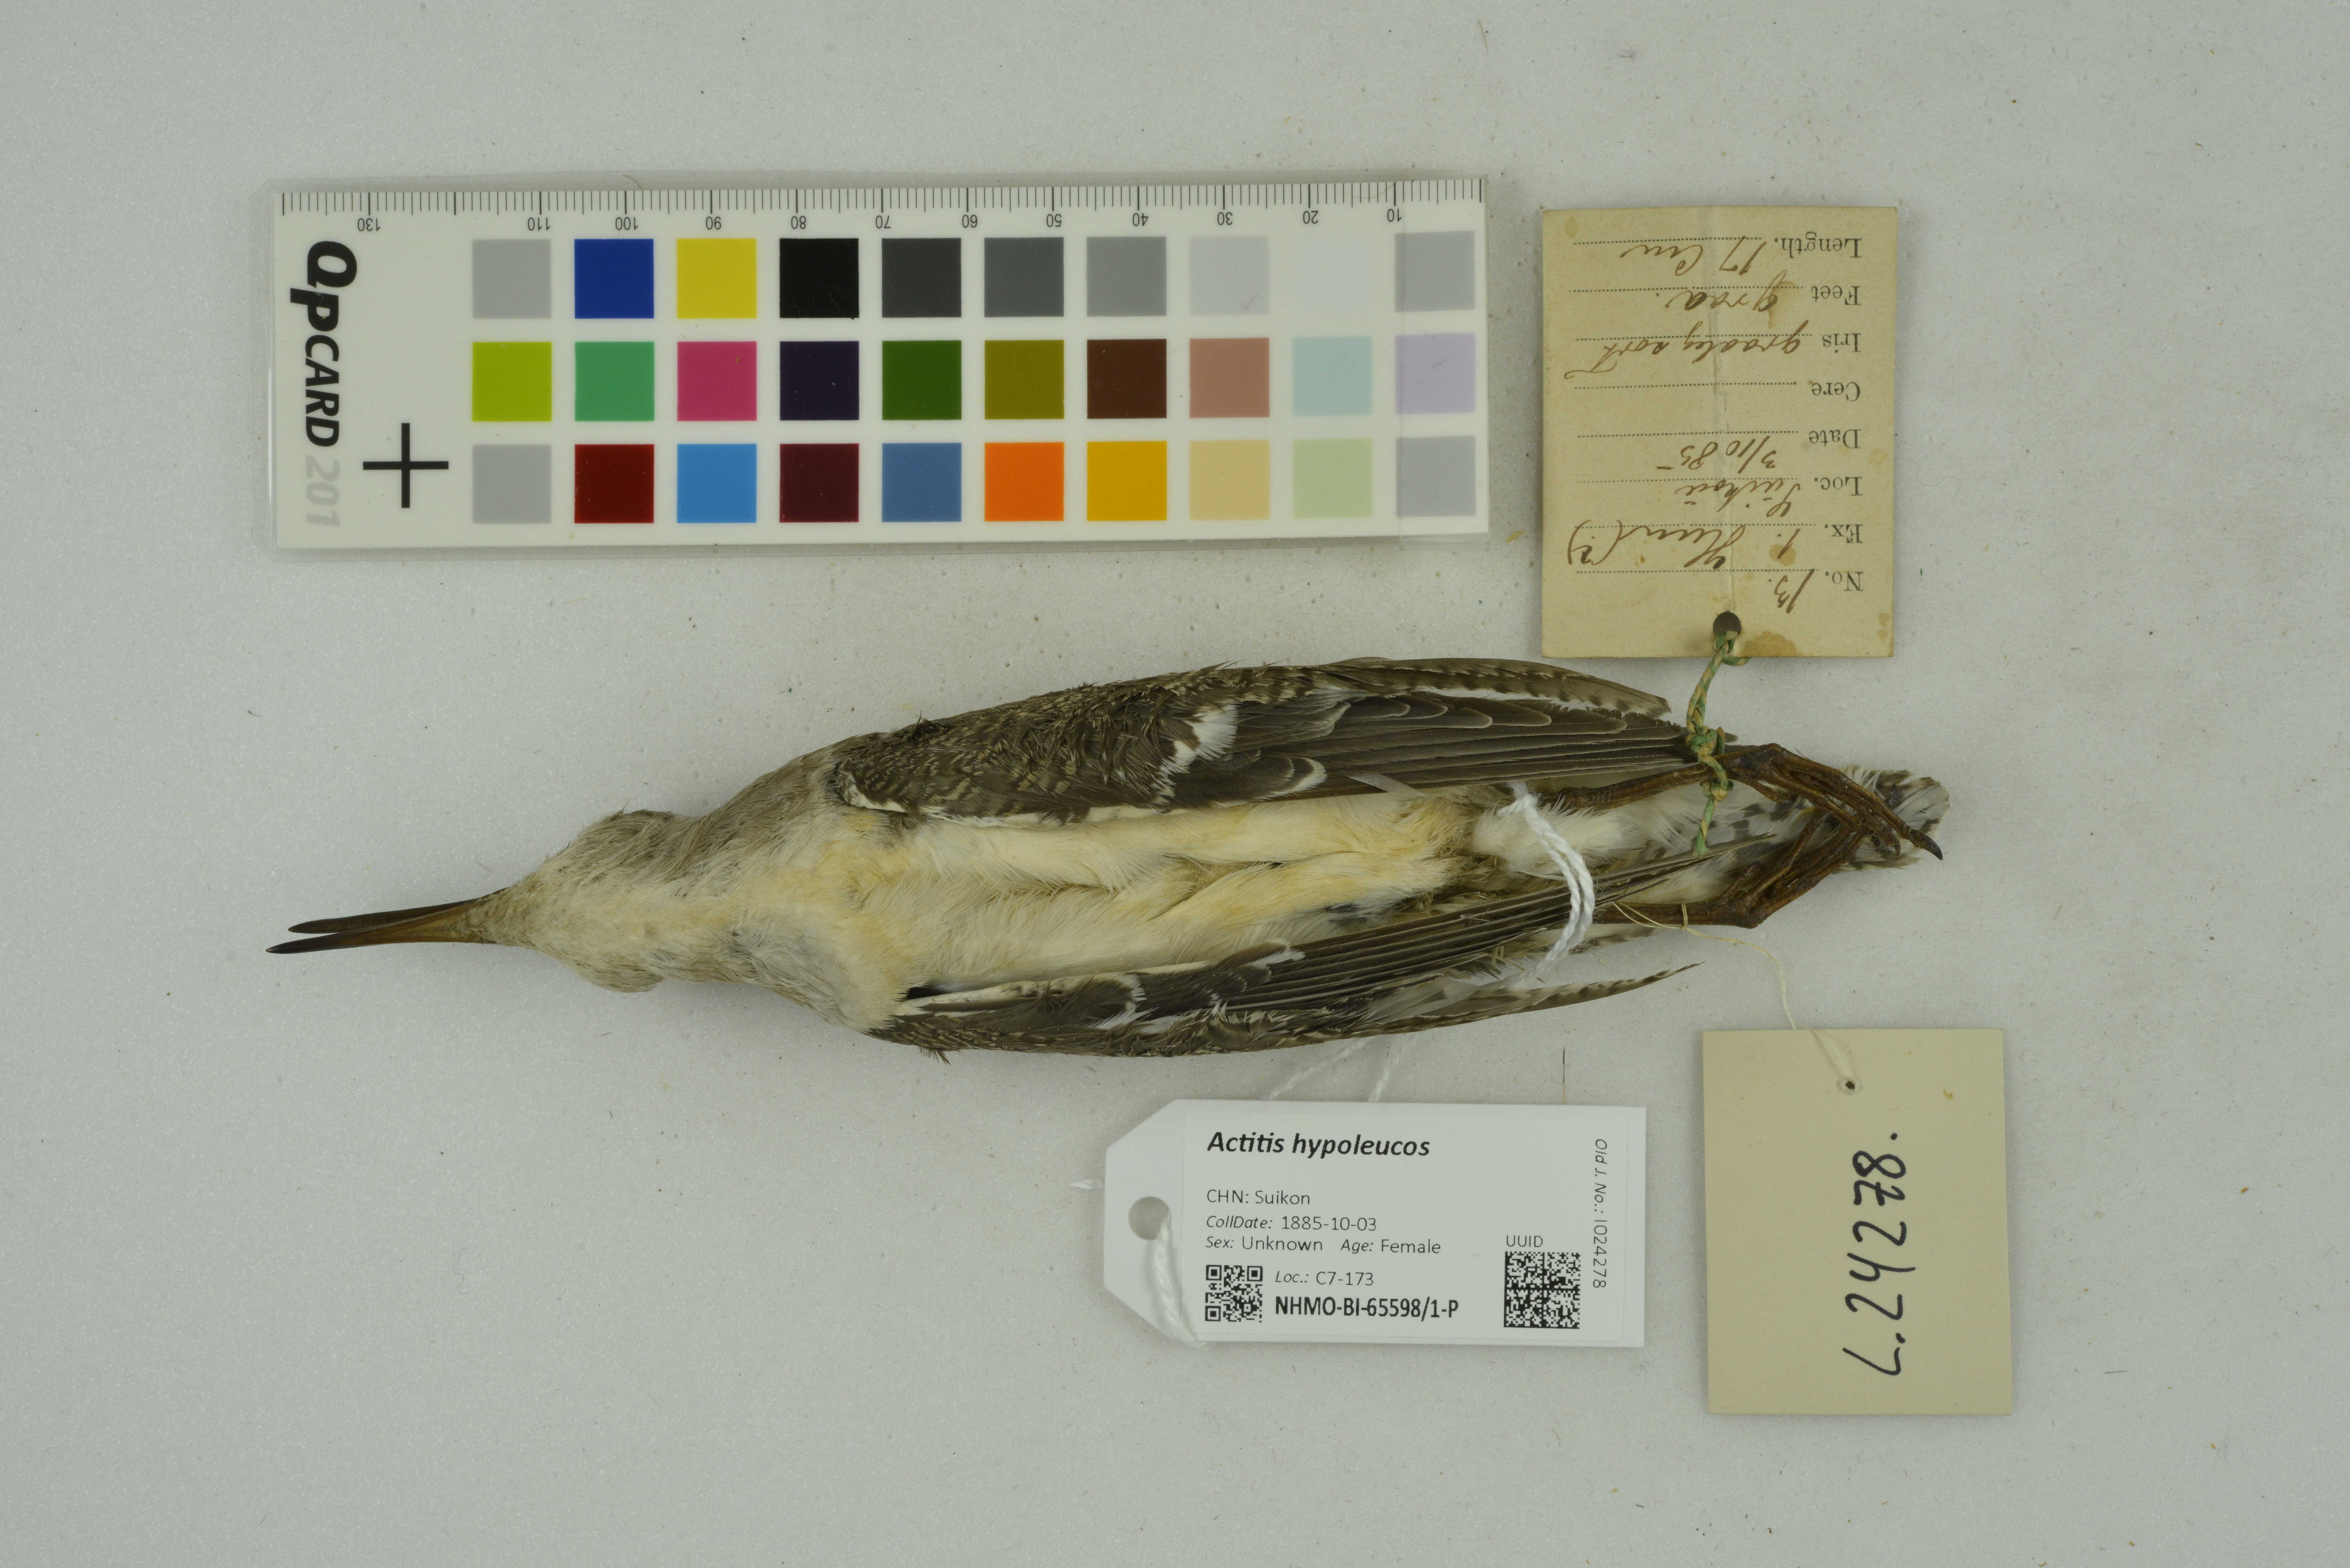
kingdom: Animalia
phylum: Chordata
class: Aves
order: Charadriiformes
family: Scolopacidae
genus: Actitis
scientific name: Actitis hypoleucos
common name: Common sandpiper
